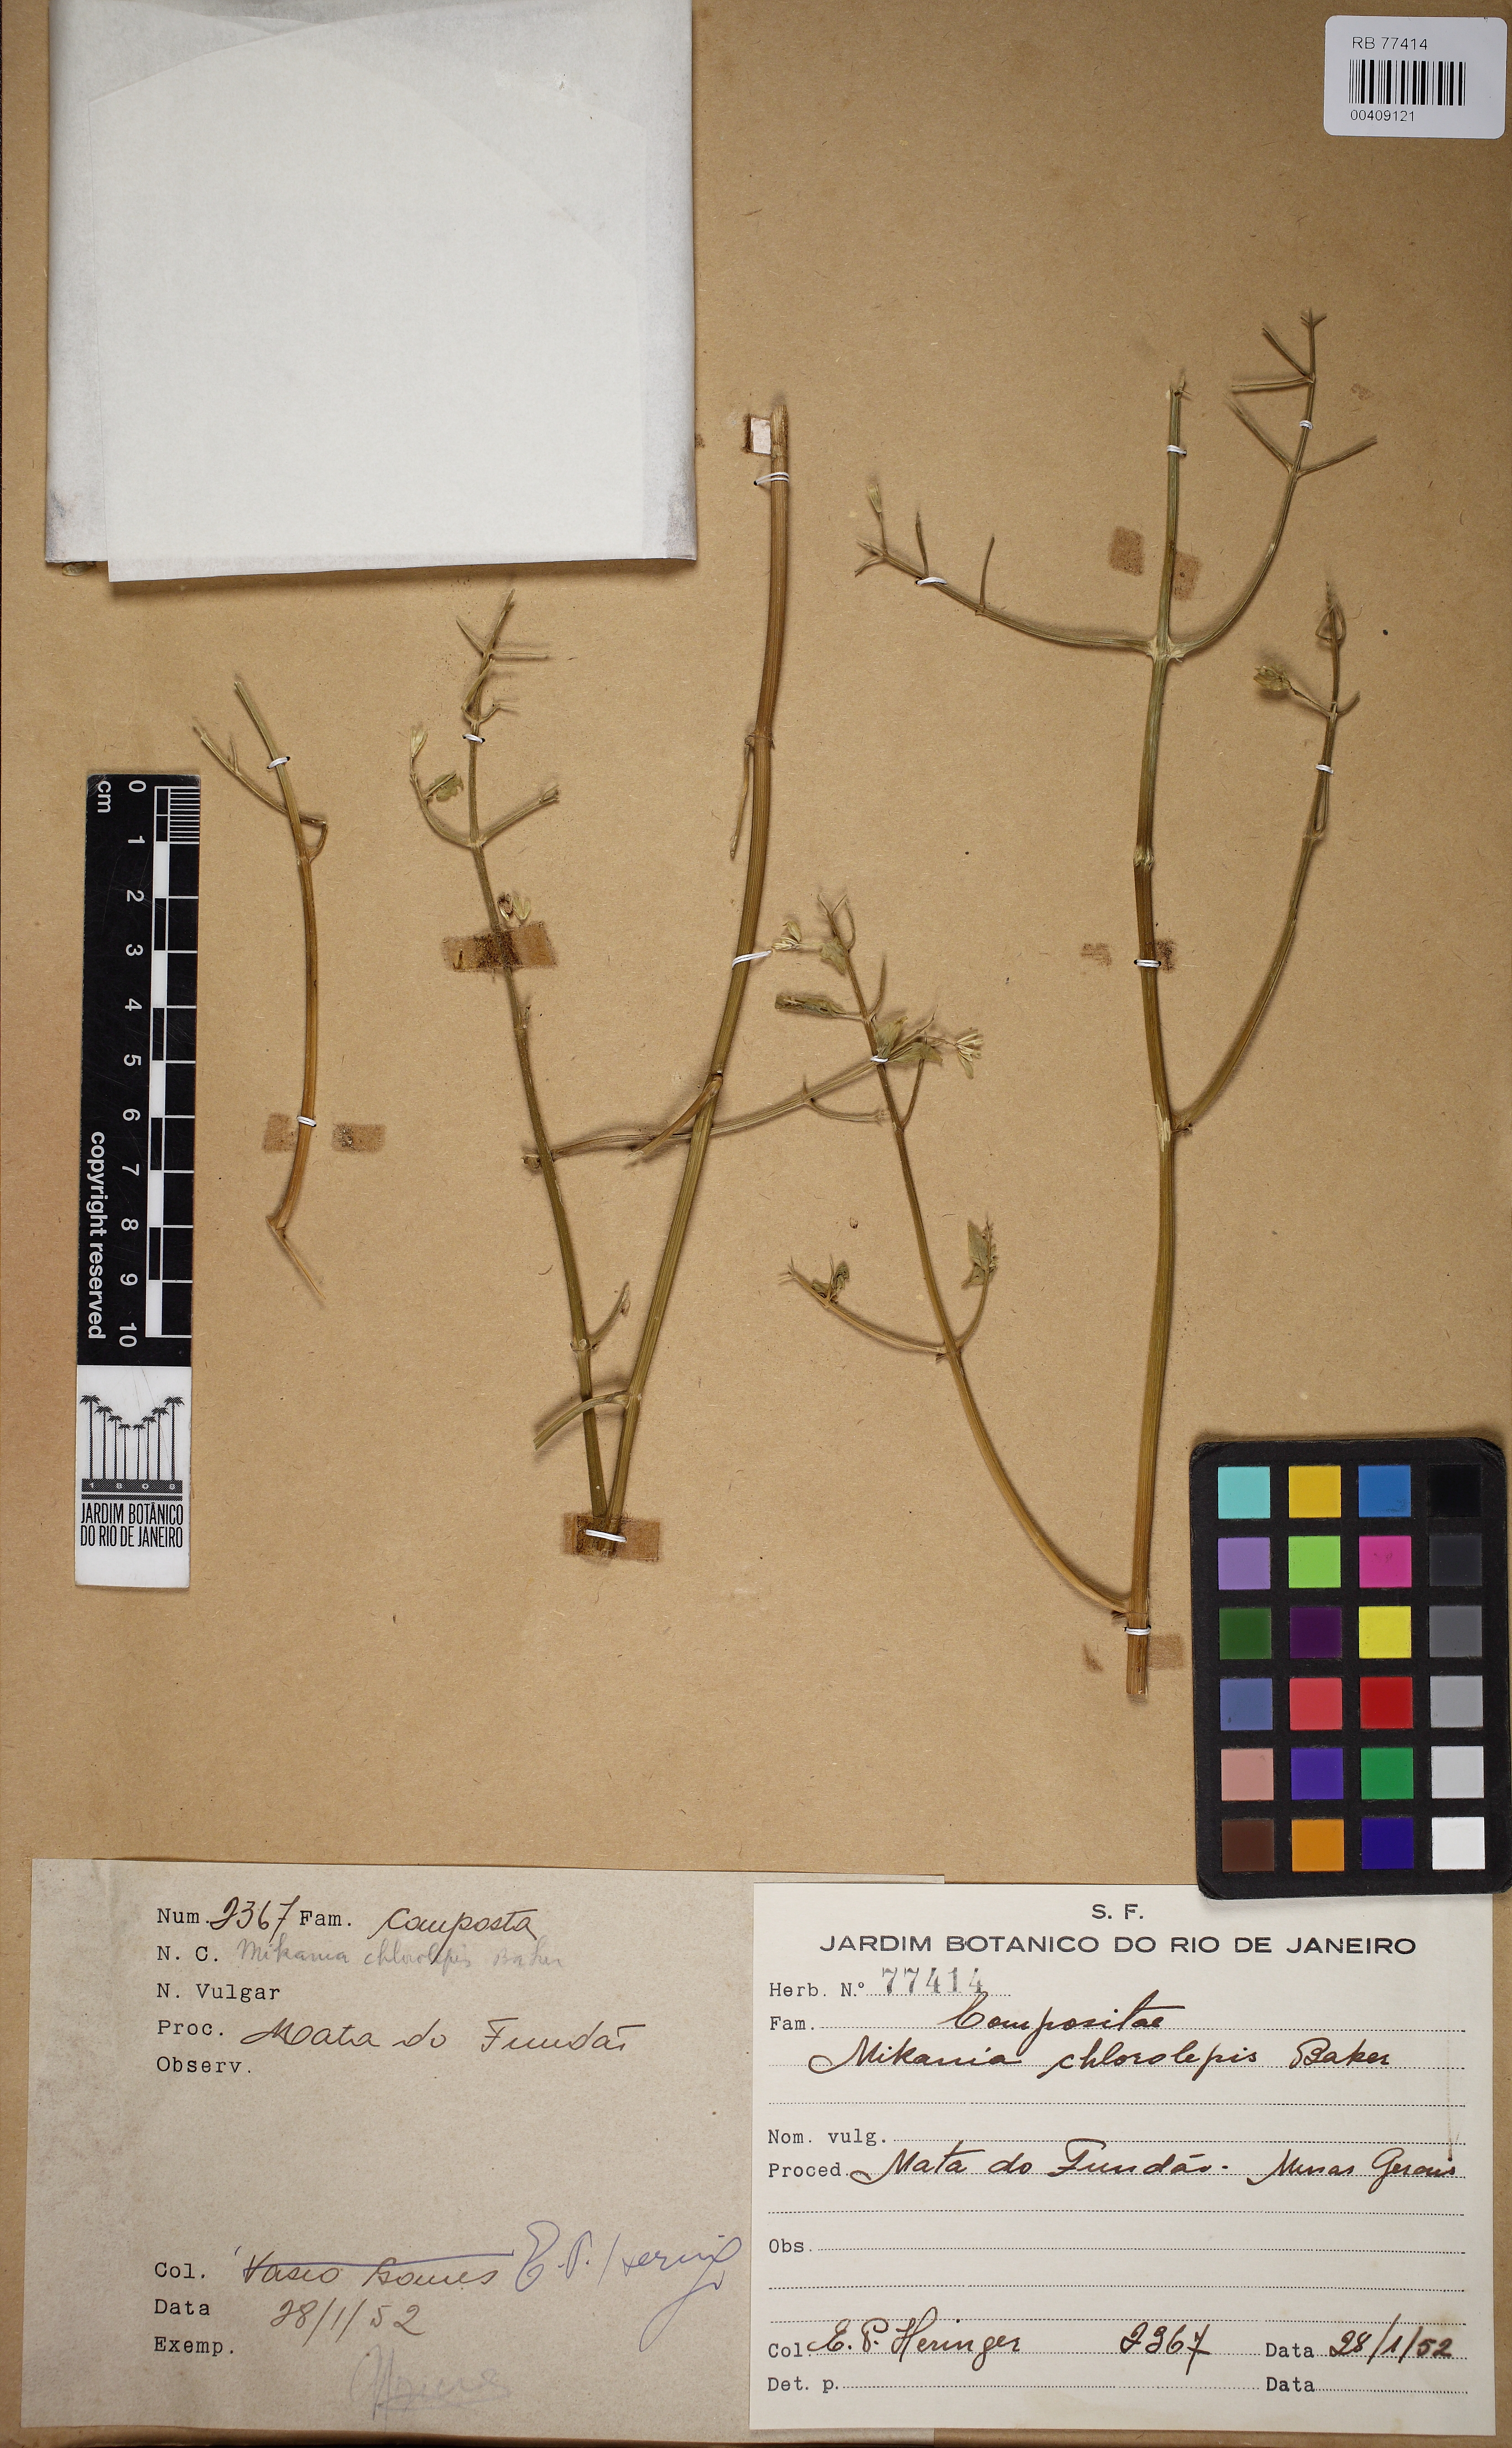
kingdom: Plantae
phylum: Tracheophyta
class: Magnoliopsida
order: Asterales
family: Asteraceae
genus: Mikania
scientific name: Mikania chlorolepis
